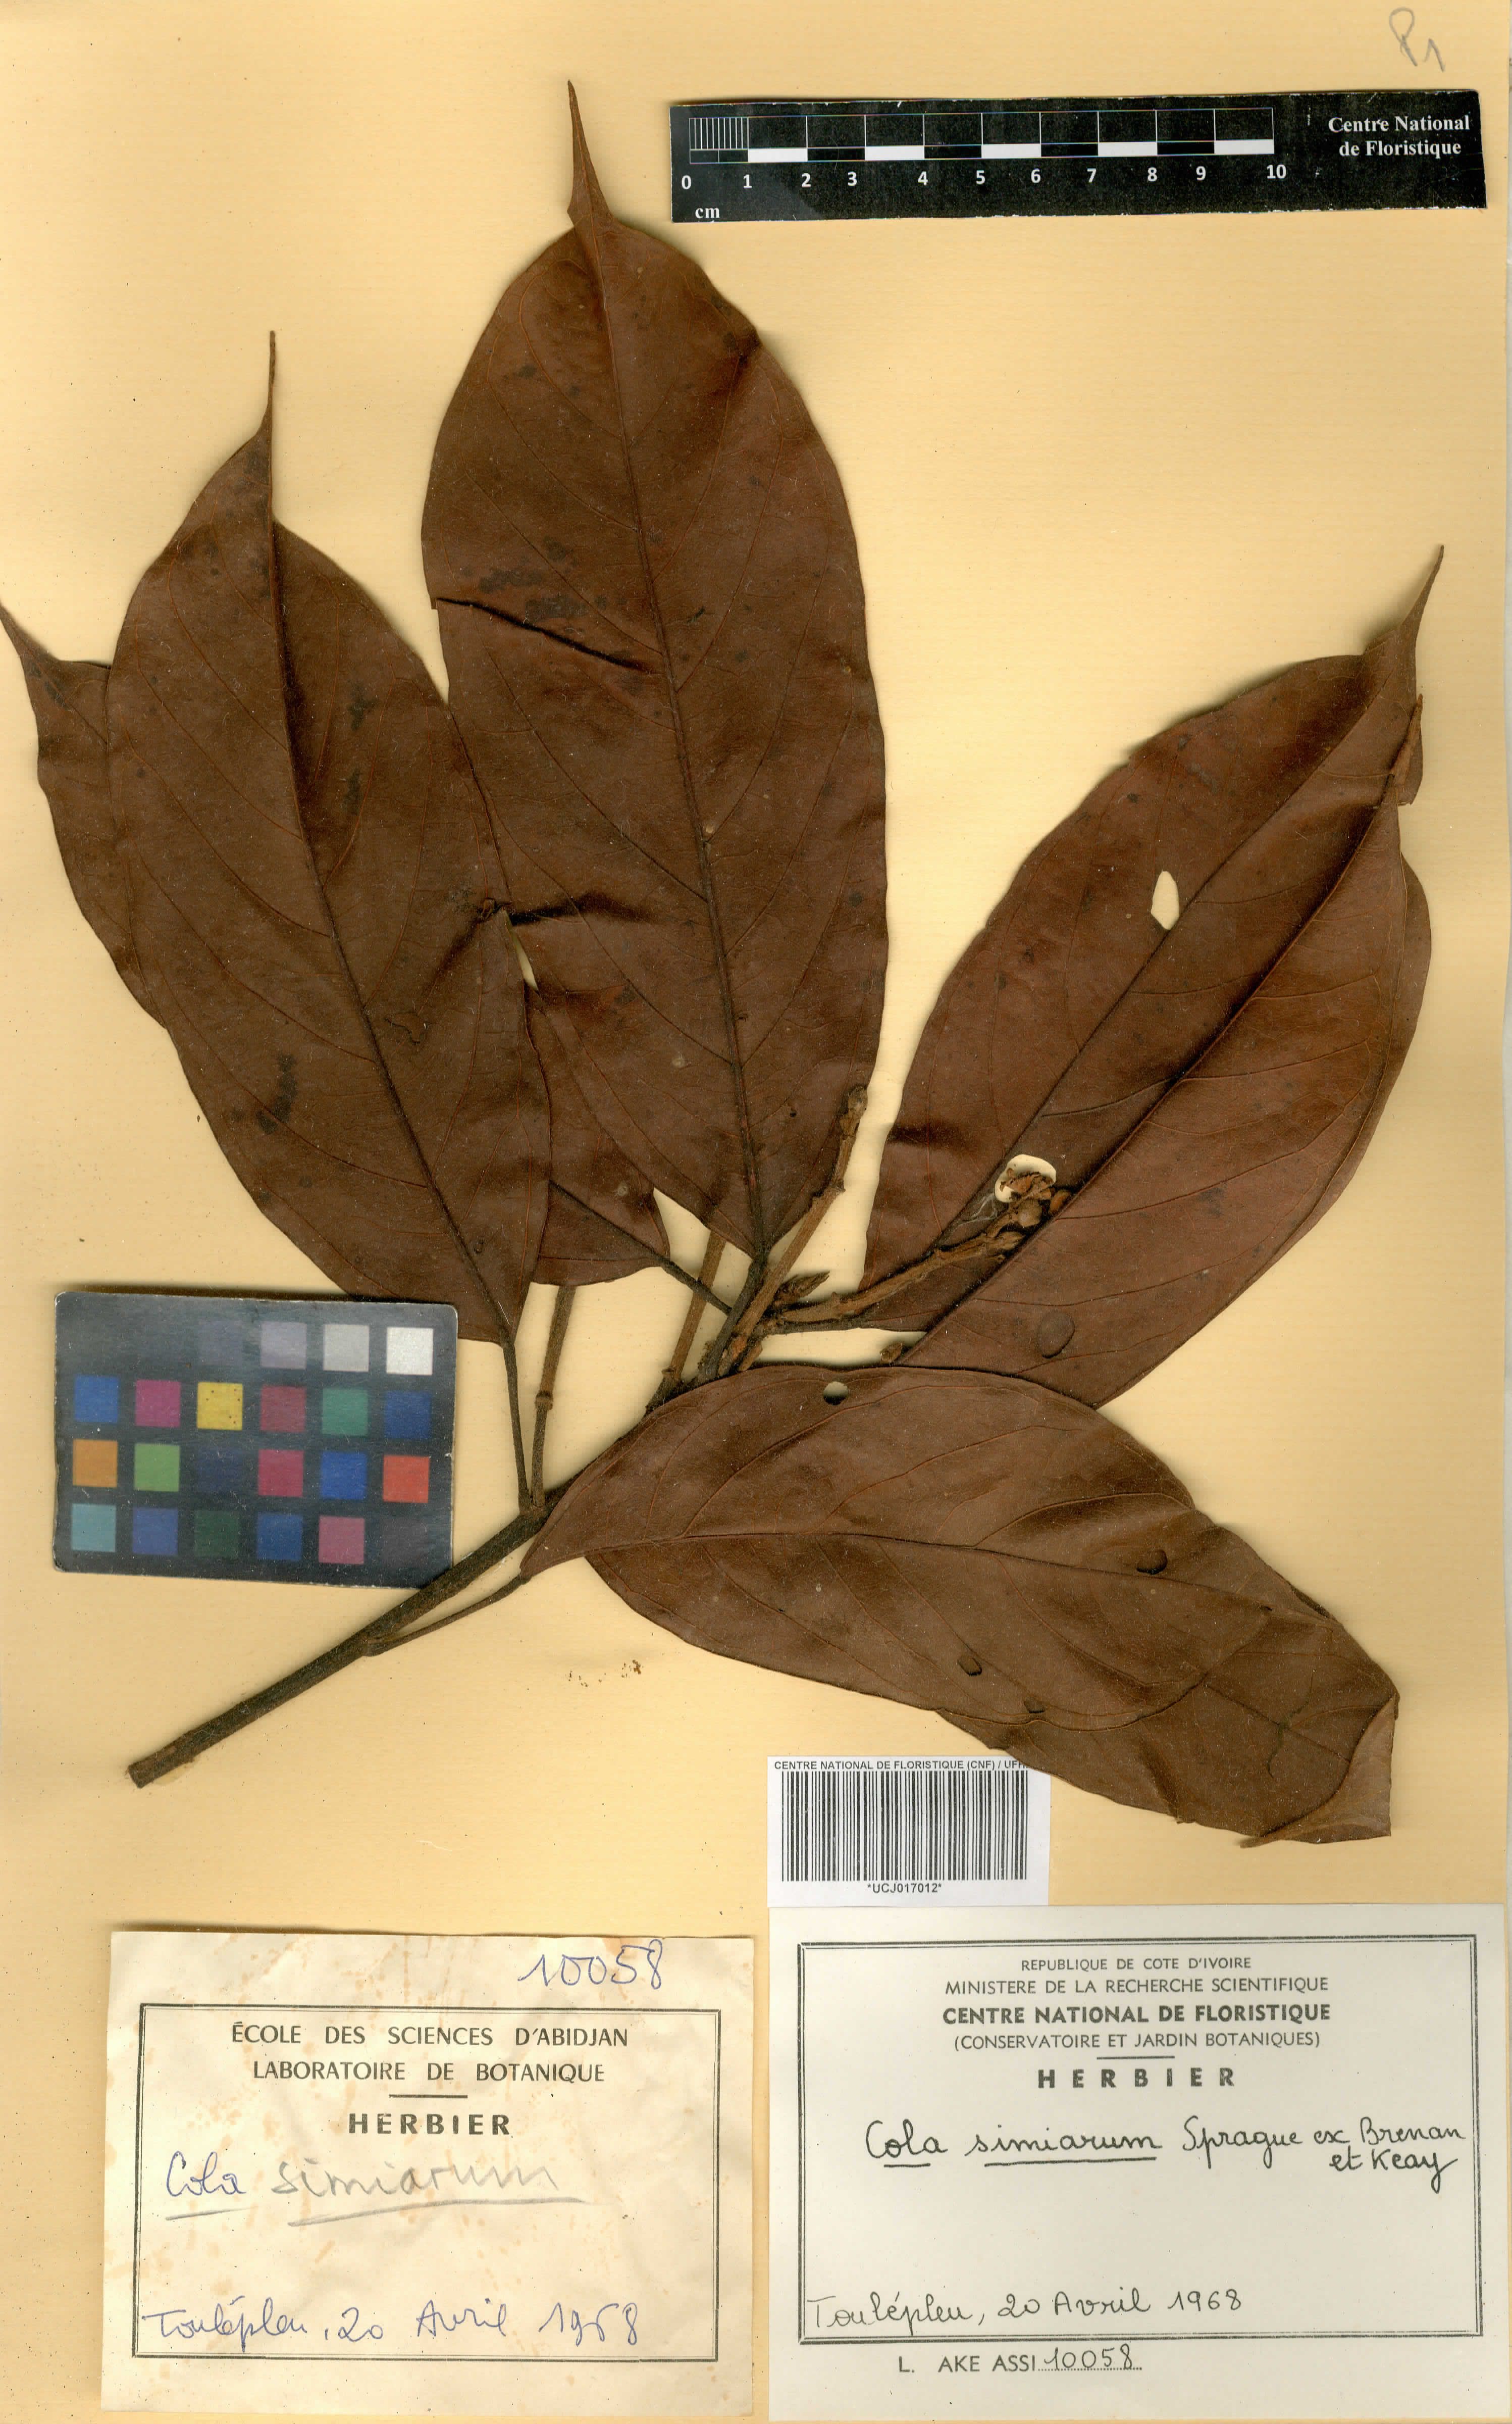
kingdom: Plantae
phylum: Tracheophyta
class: Magnoliopsida
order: Malvales
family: Malvaceae
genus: Cola
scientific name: Cola simiarum
